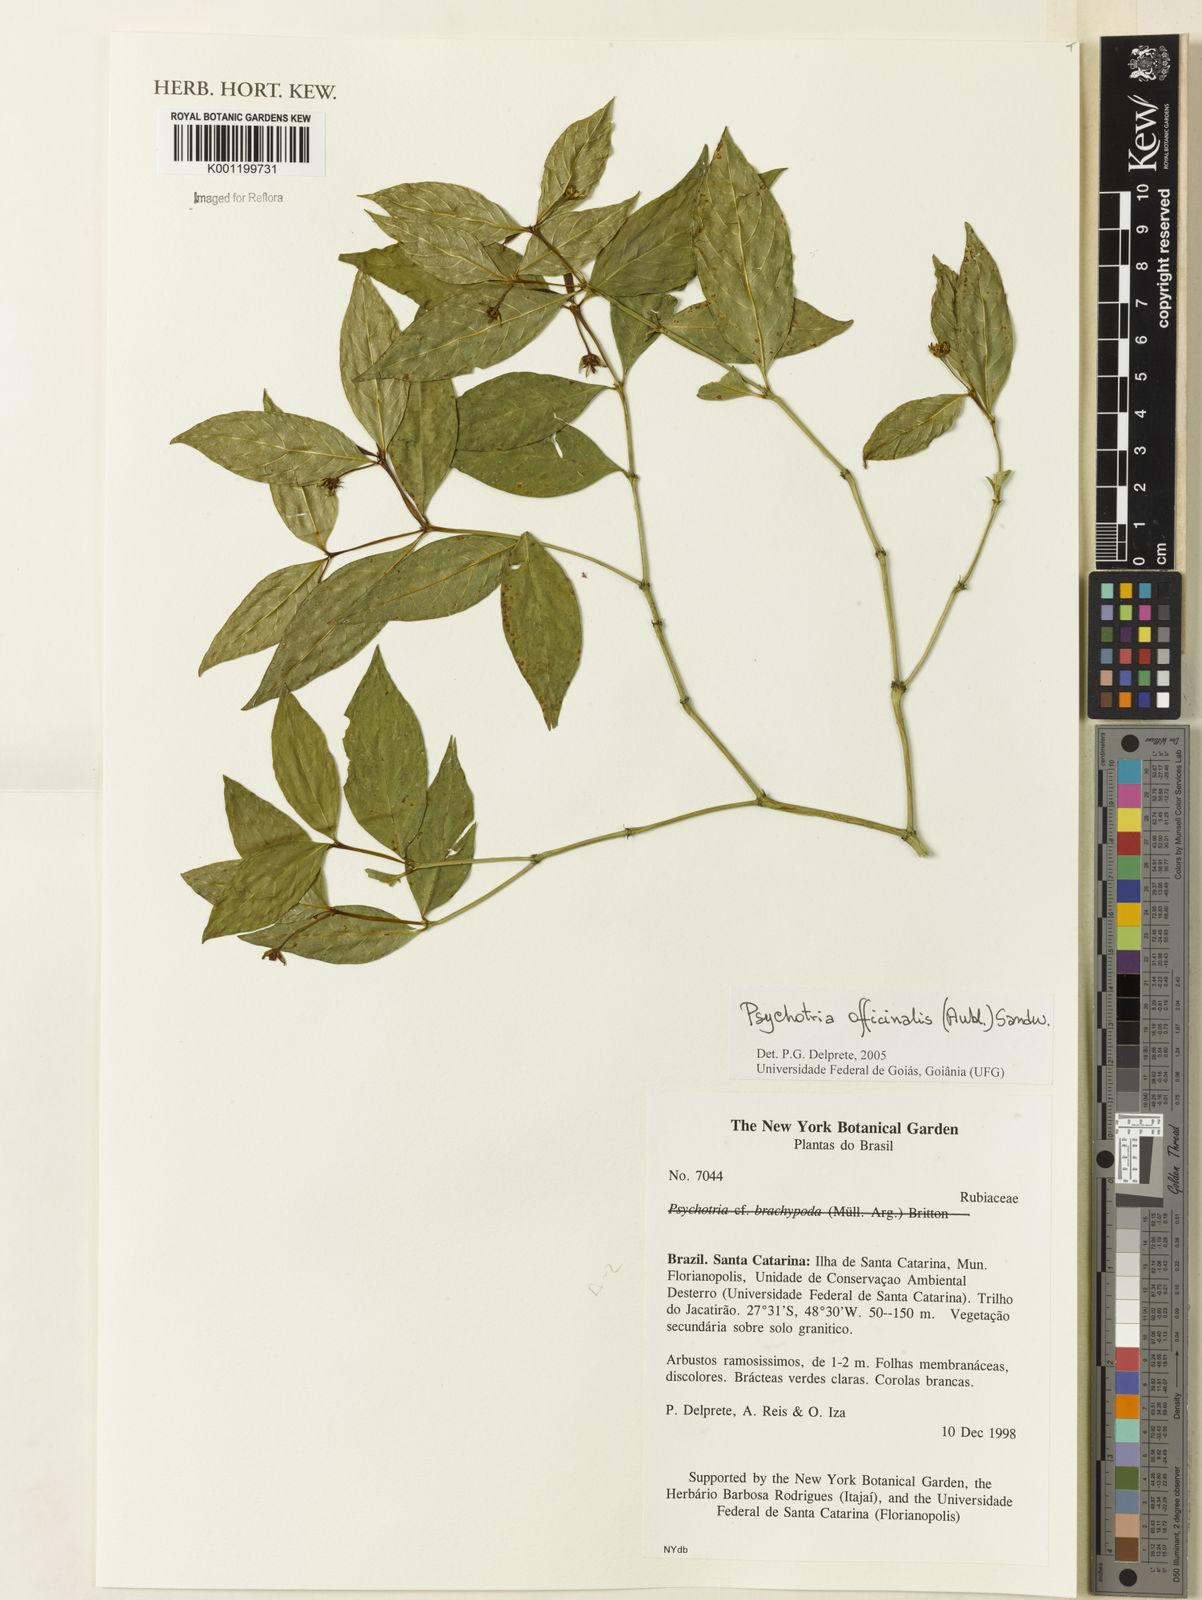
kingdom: Plantae
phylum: Tracheophyta
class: Magnoliopsida
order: Gentianales
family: Rubiaceae
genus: Psychotria
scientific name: Psychotria
